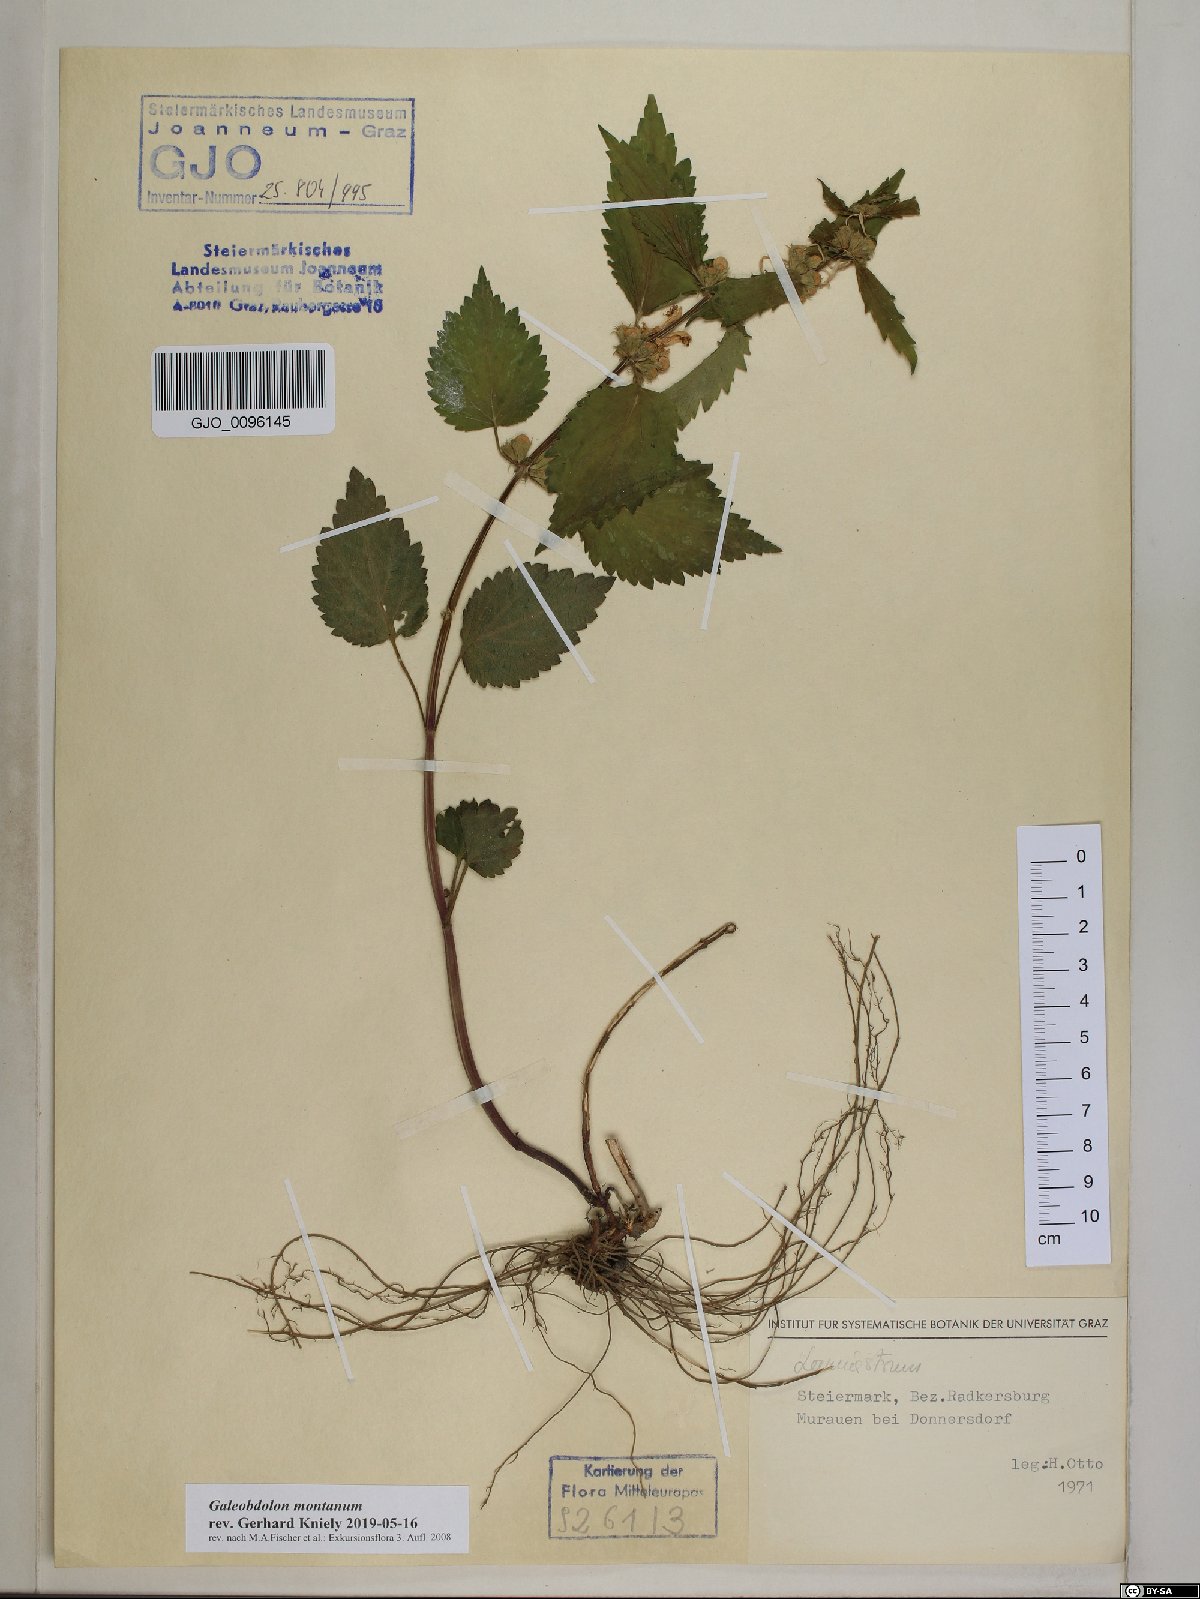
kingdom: Plantae
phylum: Tracheophyta
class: Magnoliopsida
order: Lamiales
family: Lamiaceae
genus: Lamium
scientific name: Lamium galeobdolon
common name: Yellow archangel
